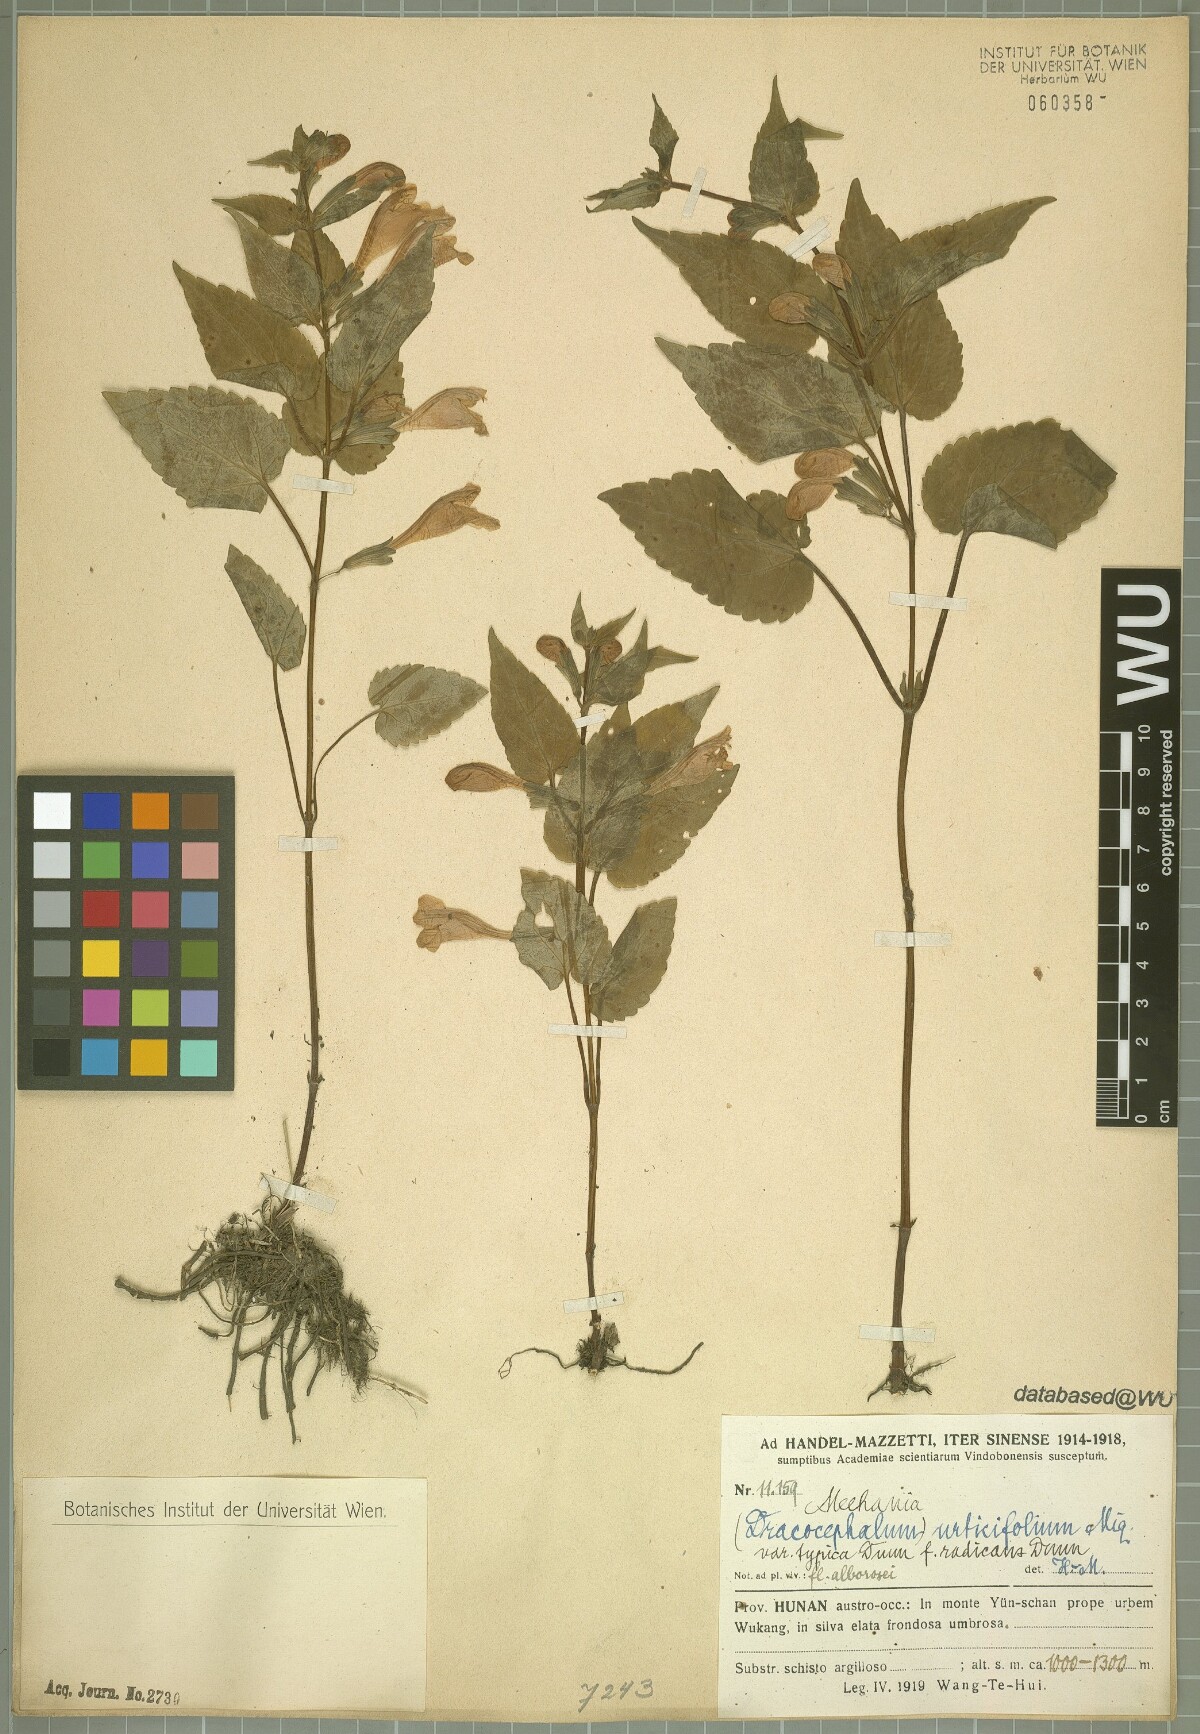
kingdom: Plantae
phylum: Tracheophyta
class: Magnoliopsida
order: Lamiales
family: Lamiaceae
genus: Meehania
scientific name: Meehania urticifolia
